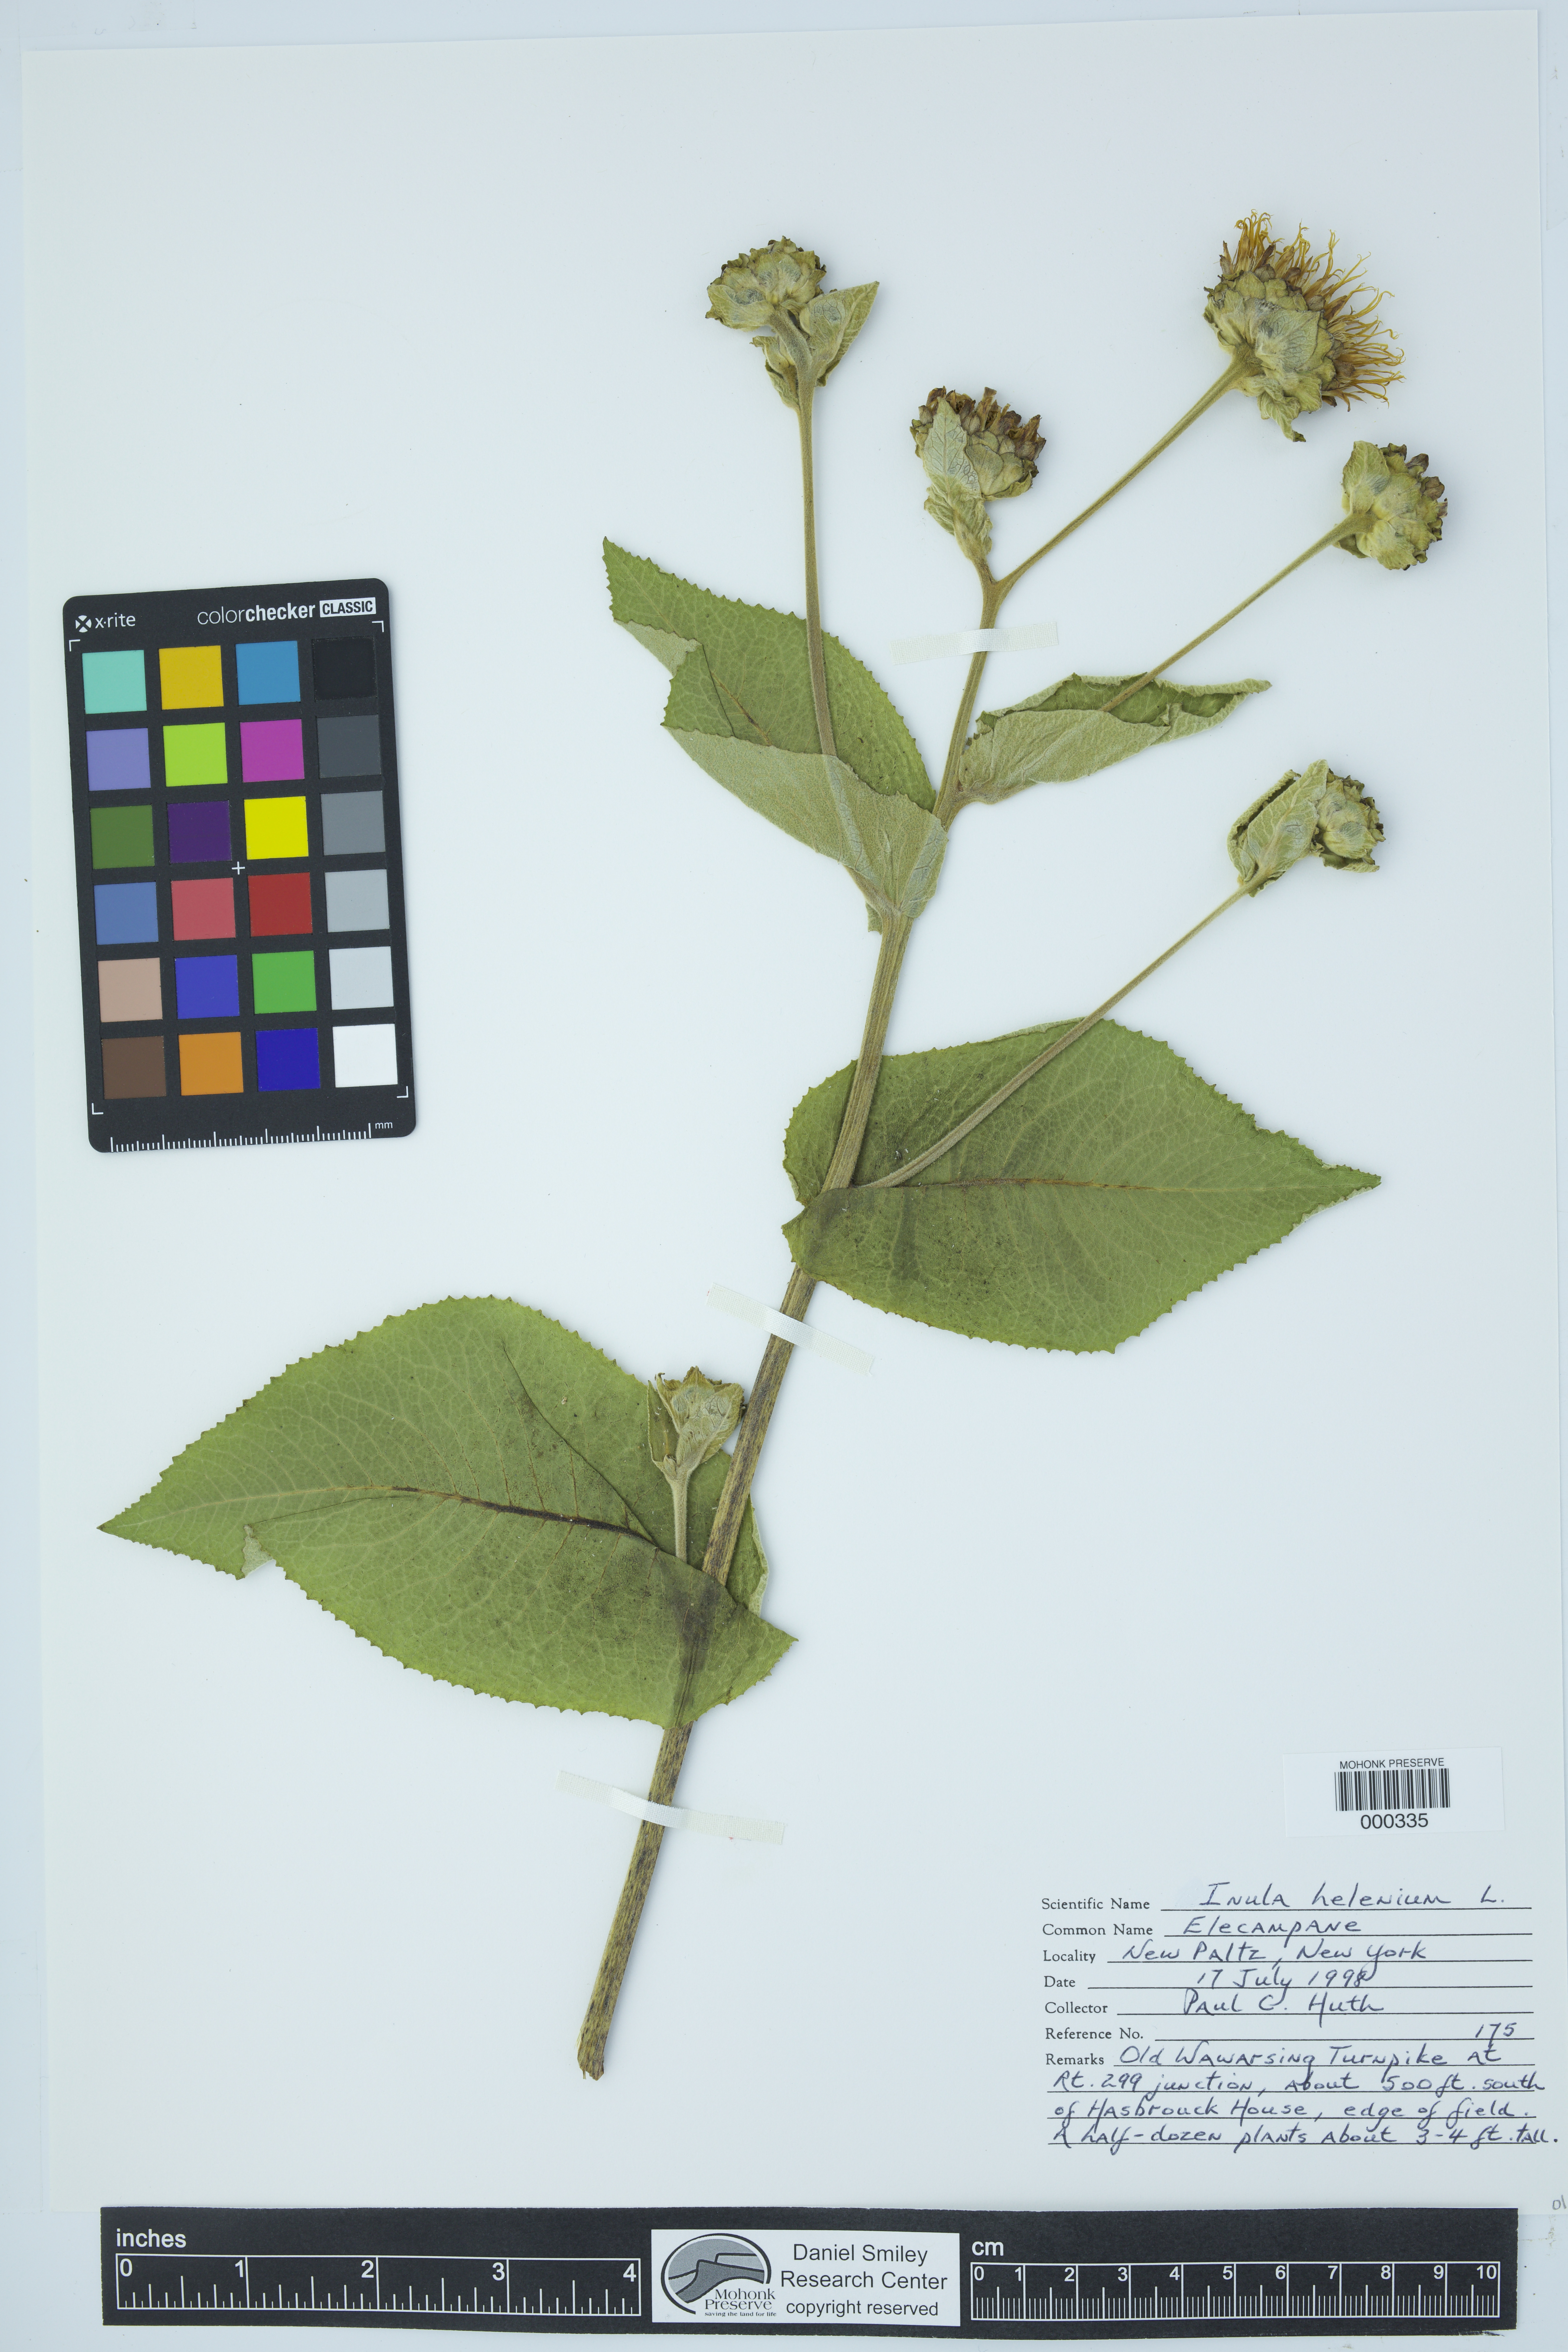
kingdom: Plantae
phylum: Tracheophyta
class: Magnoliopsida
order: Asterales
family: Asteraceae
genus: Inula
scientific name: Inula helenium
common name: Elecampane
